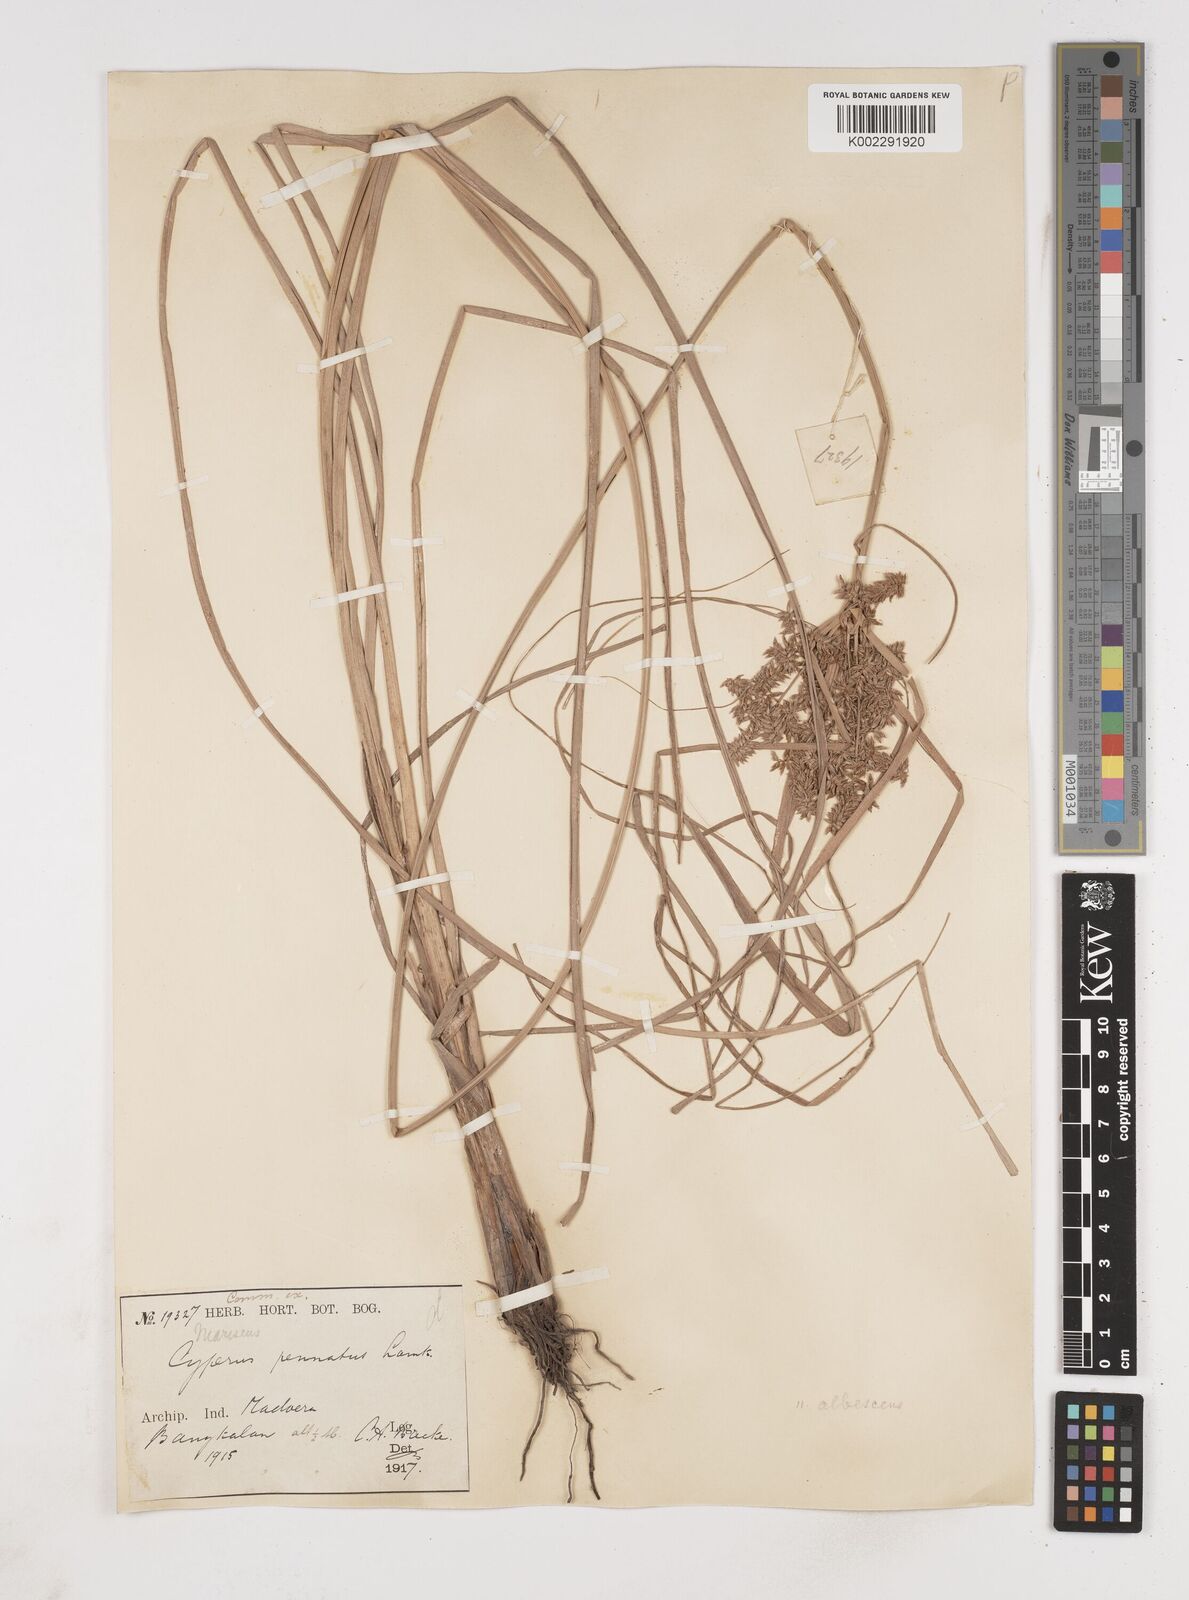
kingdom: Plantae
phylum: Tracheophyta
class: Liliopsida
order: Poales
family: Cyperaceae
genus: Cyperus
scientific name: Cyperus javanicus
